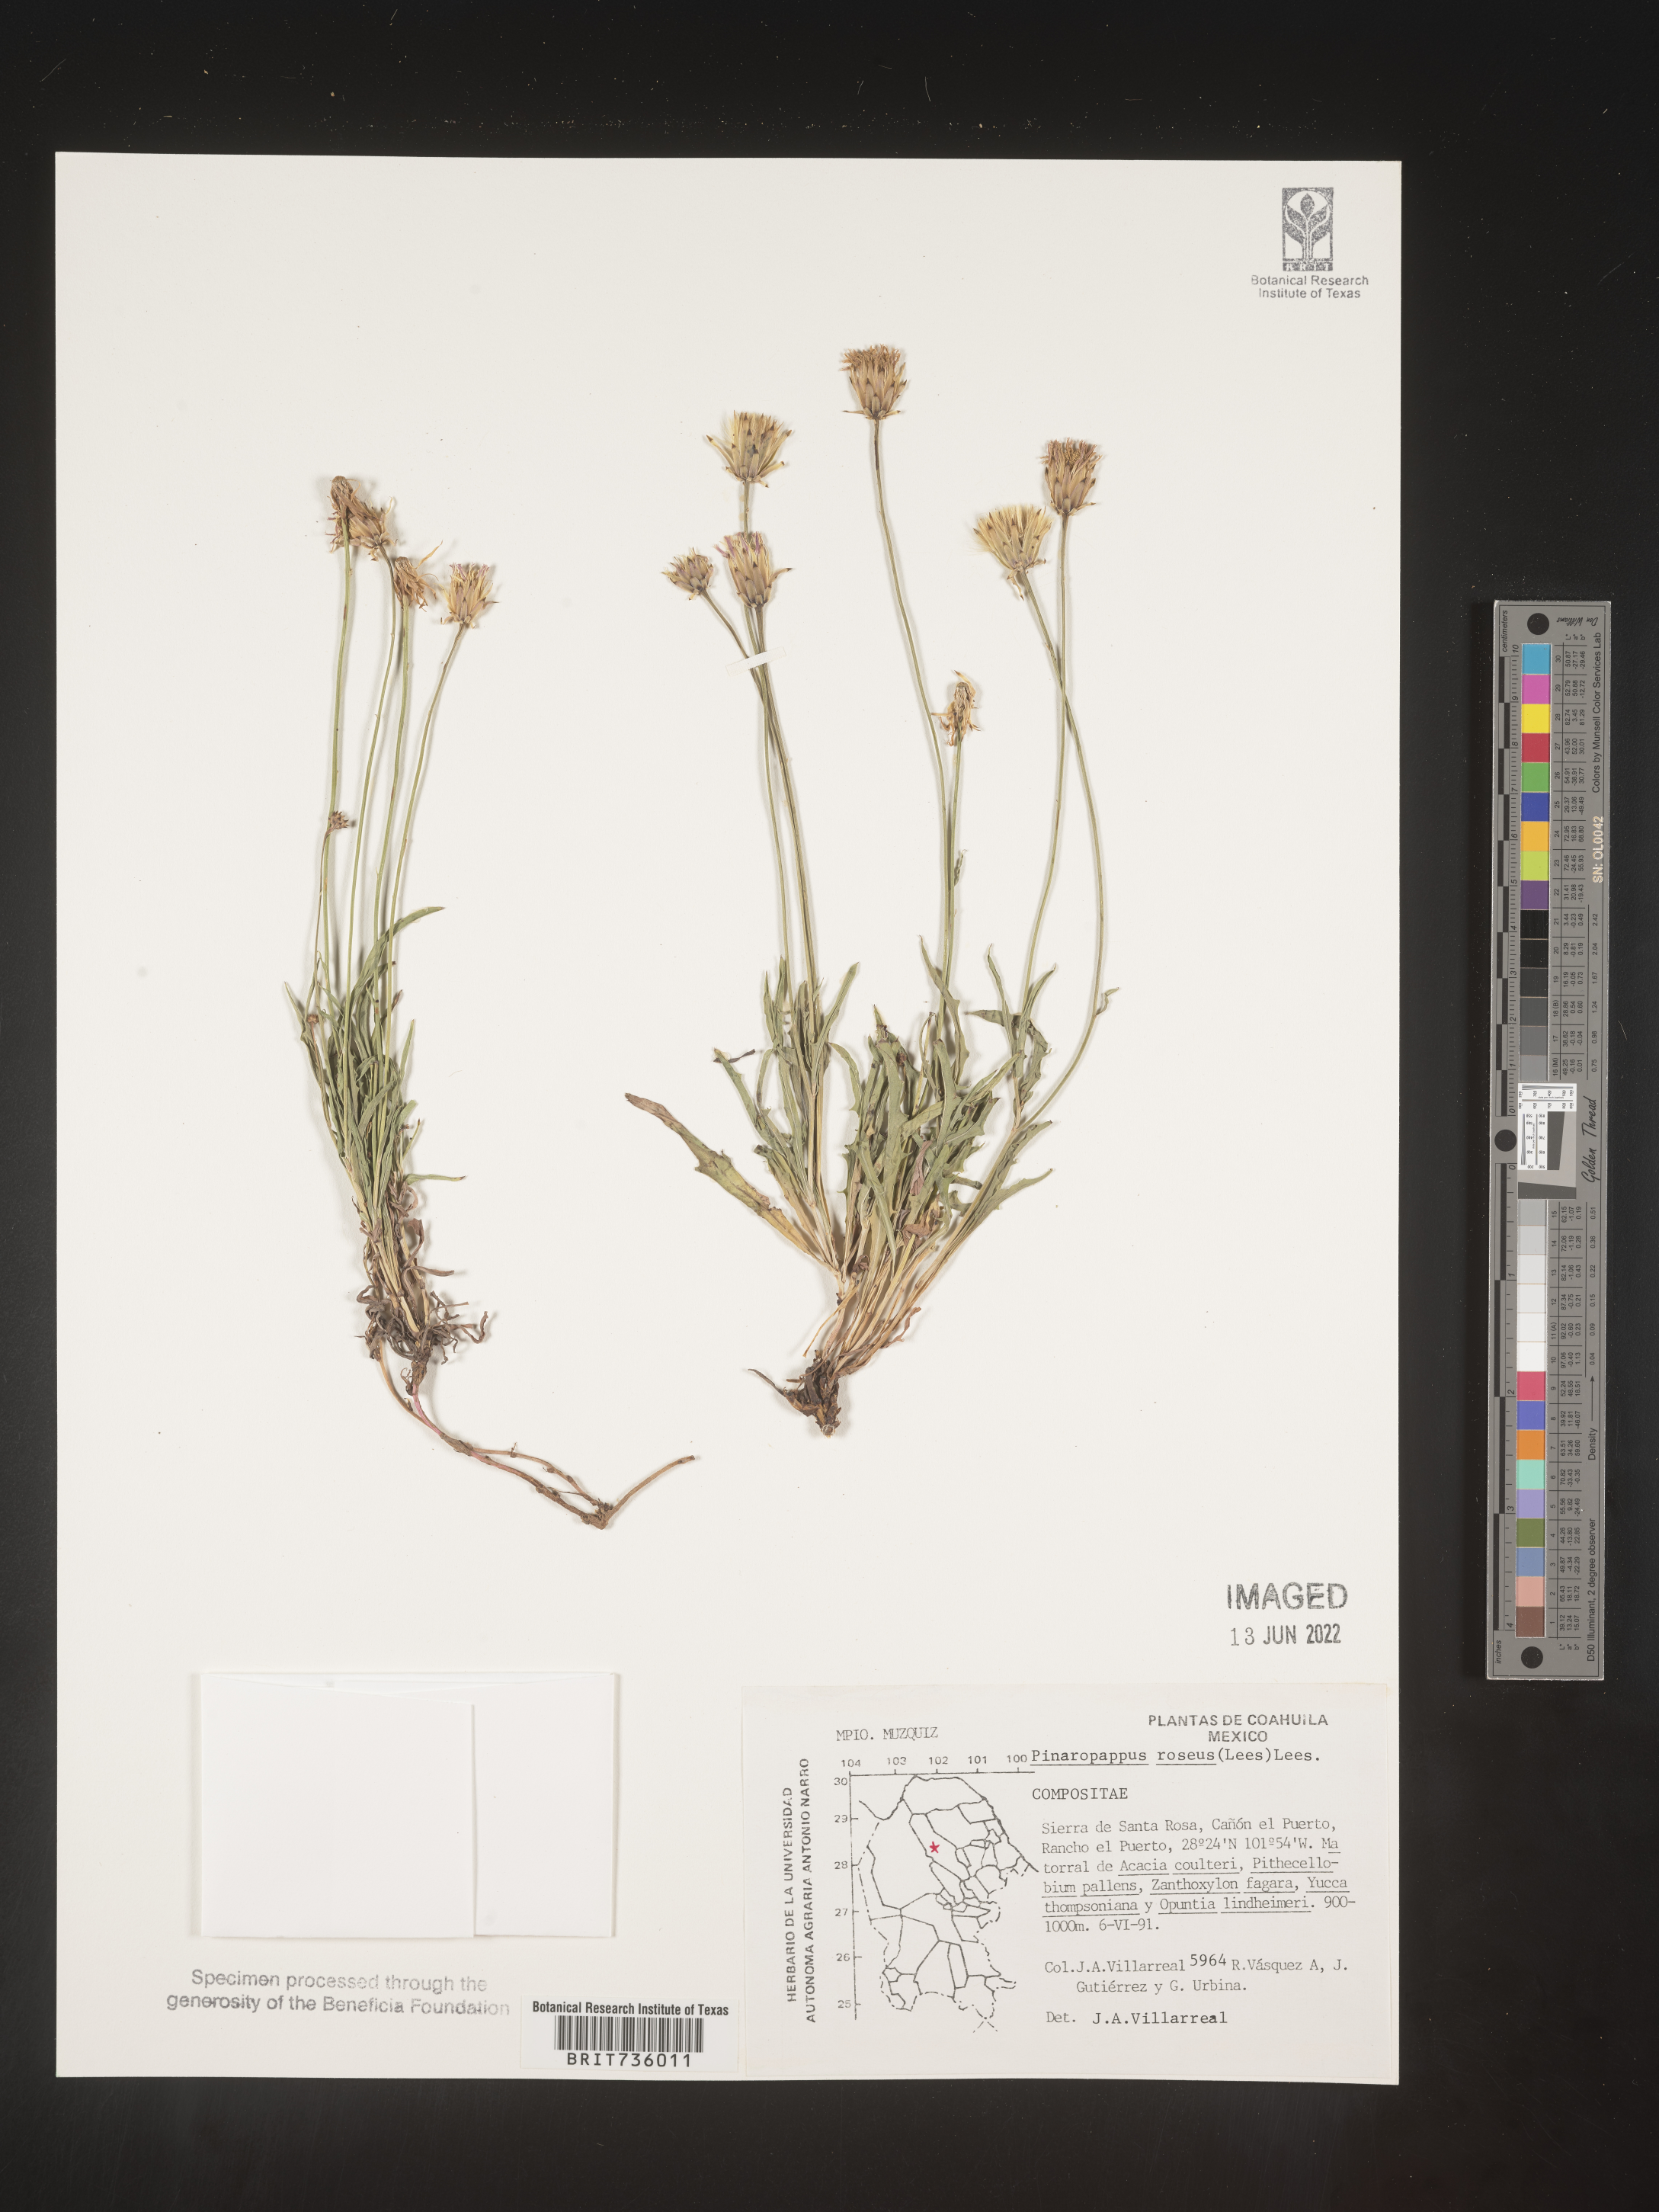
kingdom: Plantae
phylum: Tracheophyta
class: Magnoliopsida
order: Asterales
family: Asteraceae
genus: Pinaropappus
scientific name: Pinaropappus
